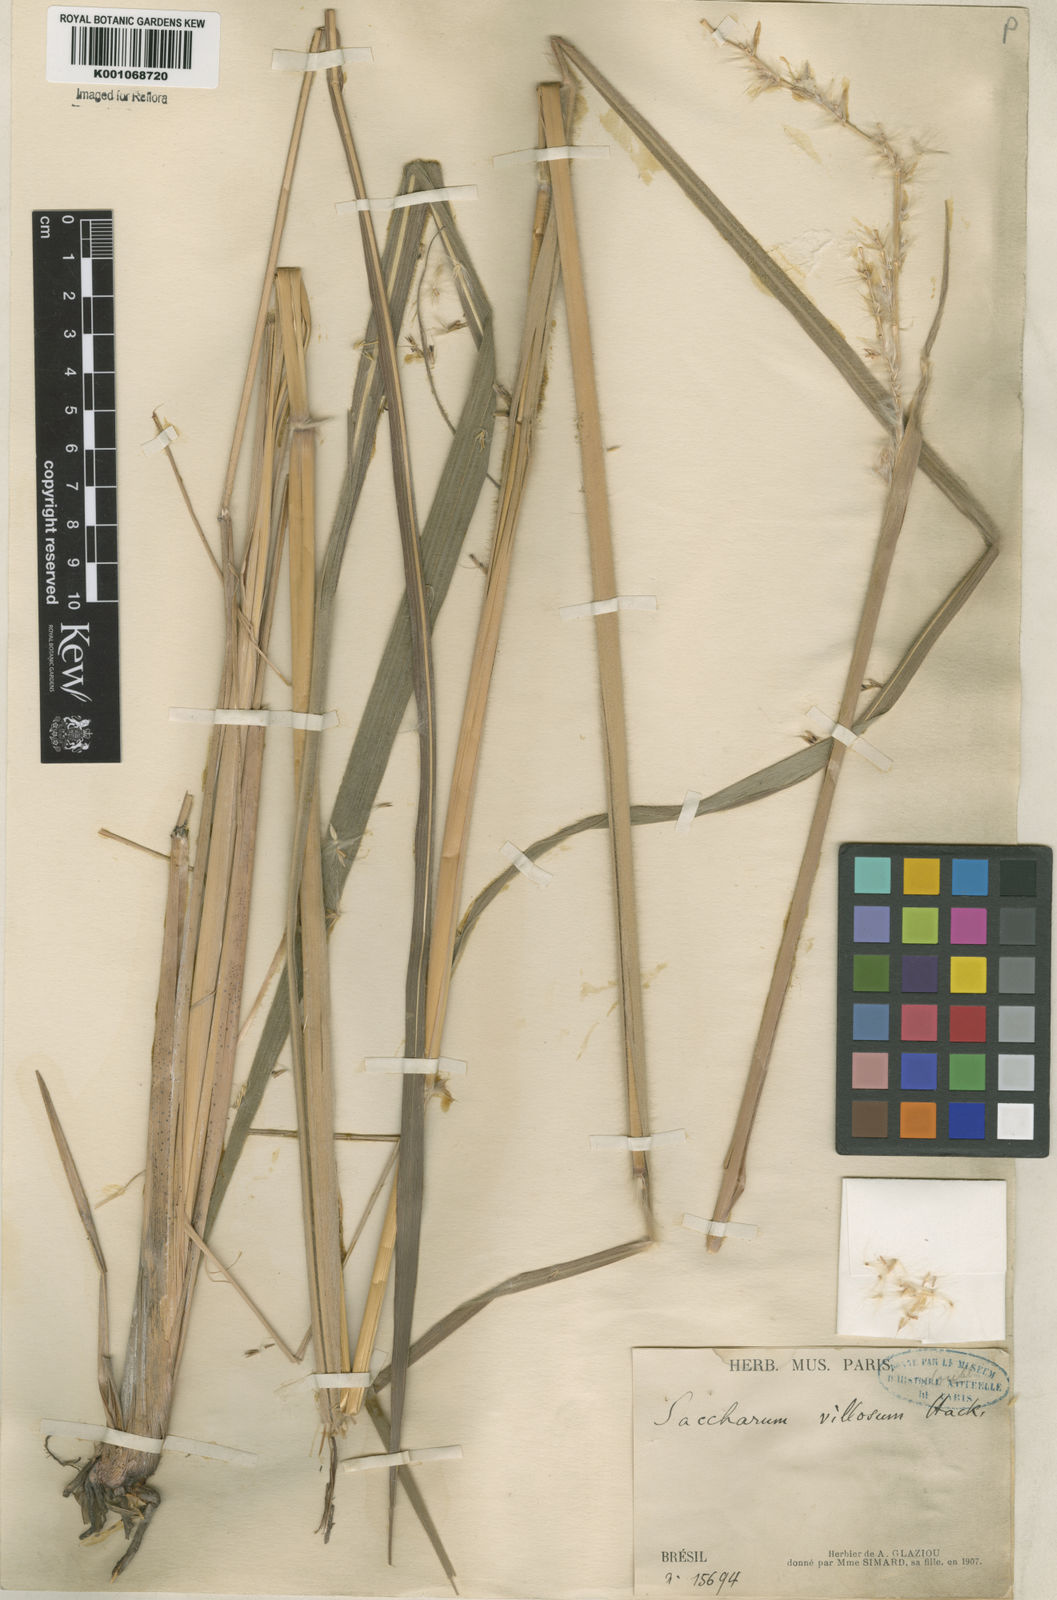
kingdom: Plantae
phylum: Tracheophyta
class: Liliopsida
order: Poales
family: Poaceae
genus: Saccharum
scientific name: Saccharum angustifolium
